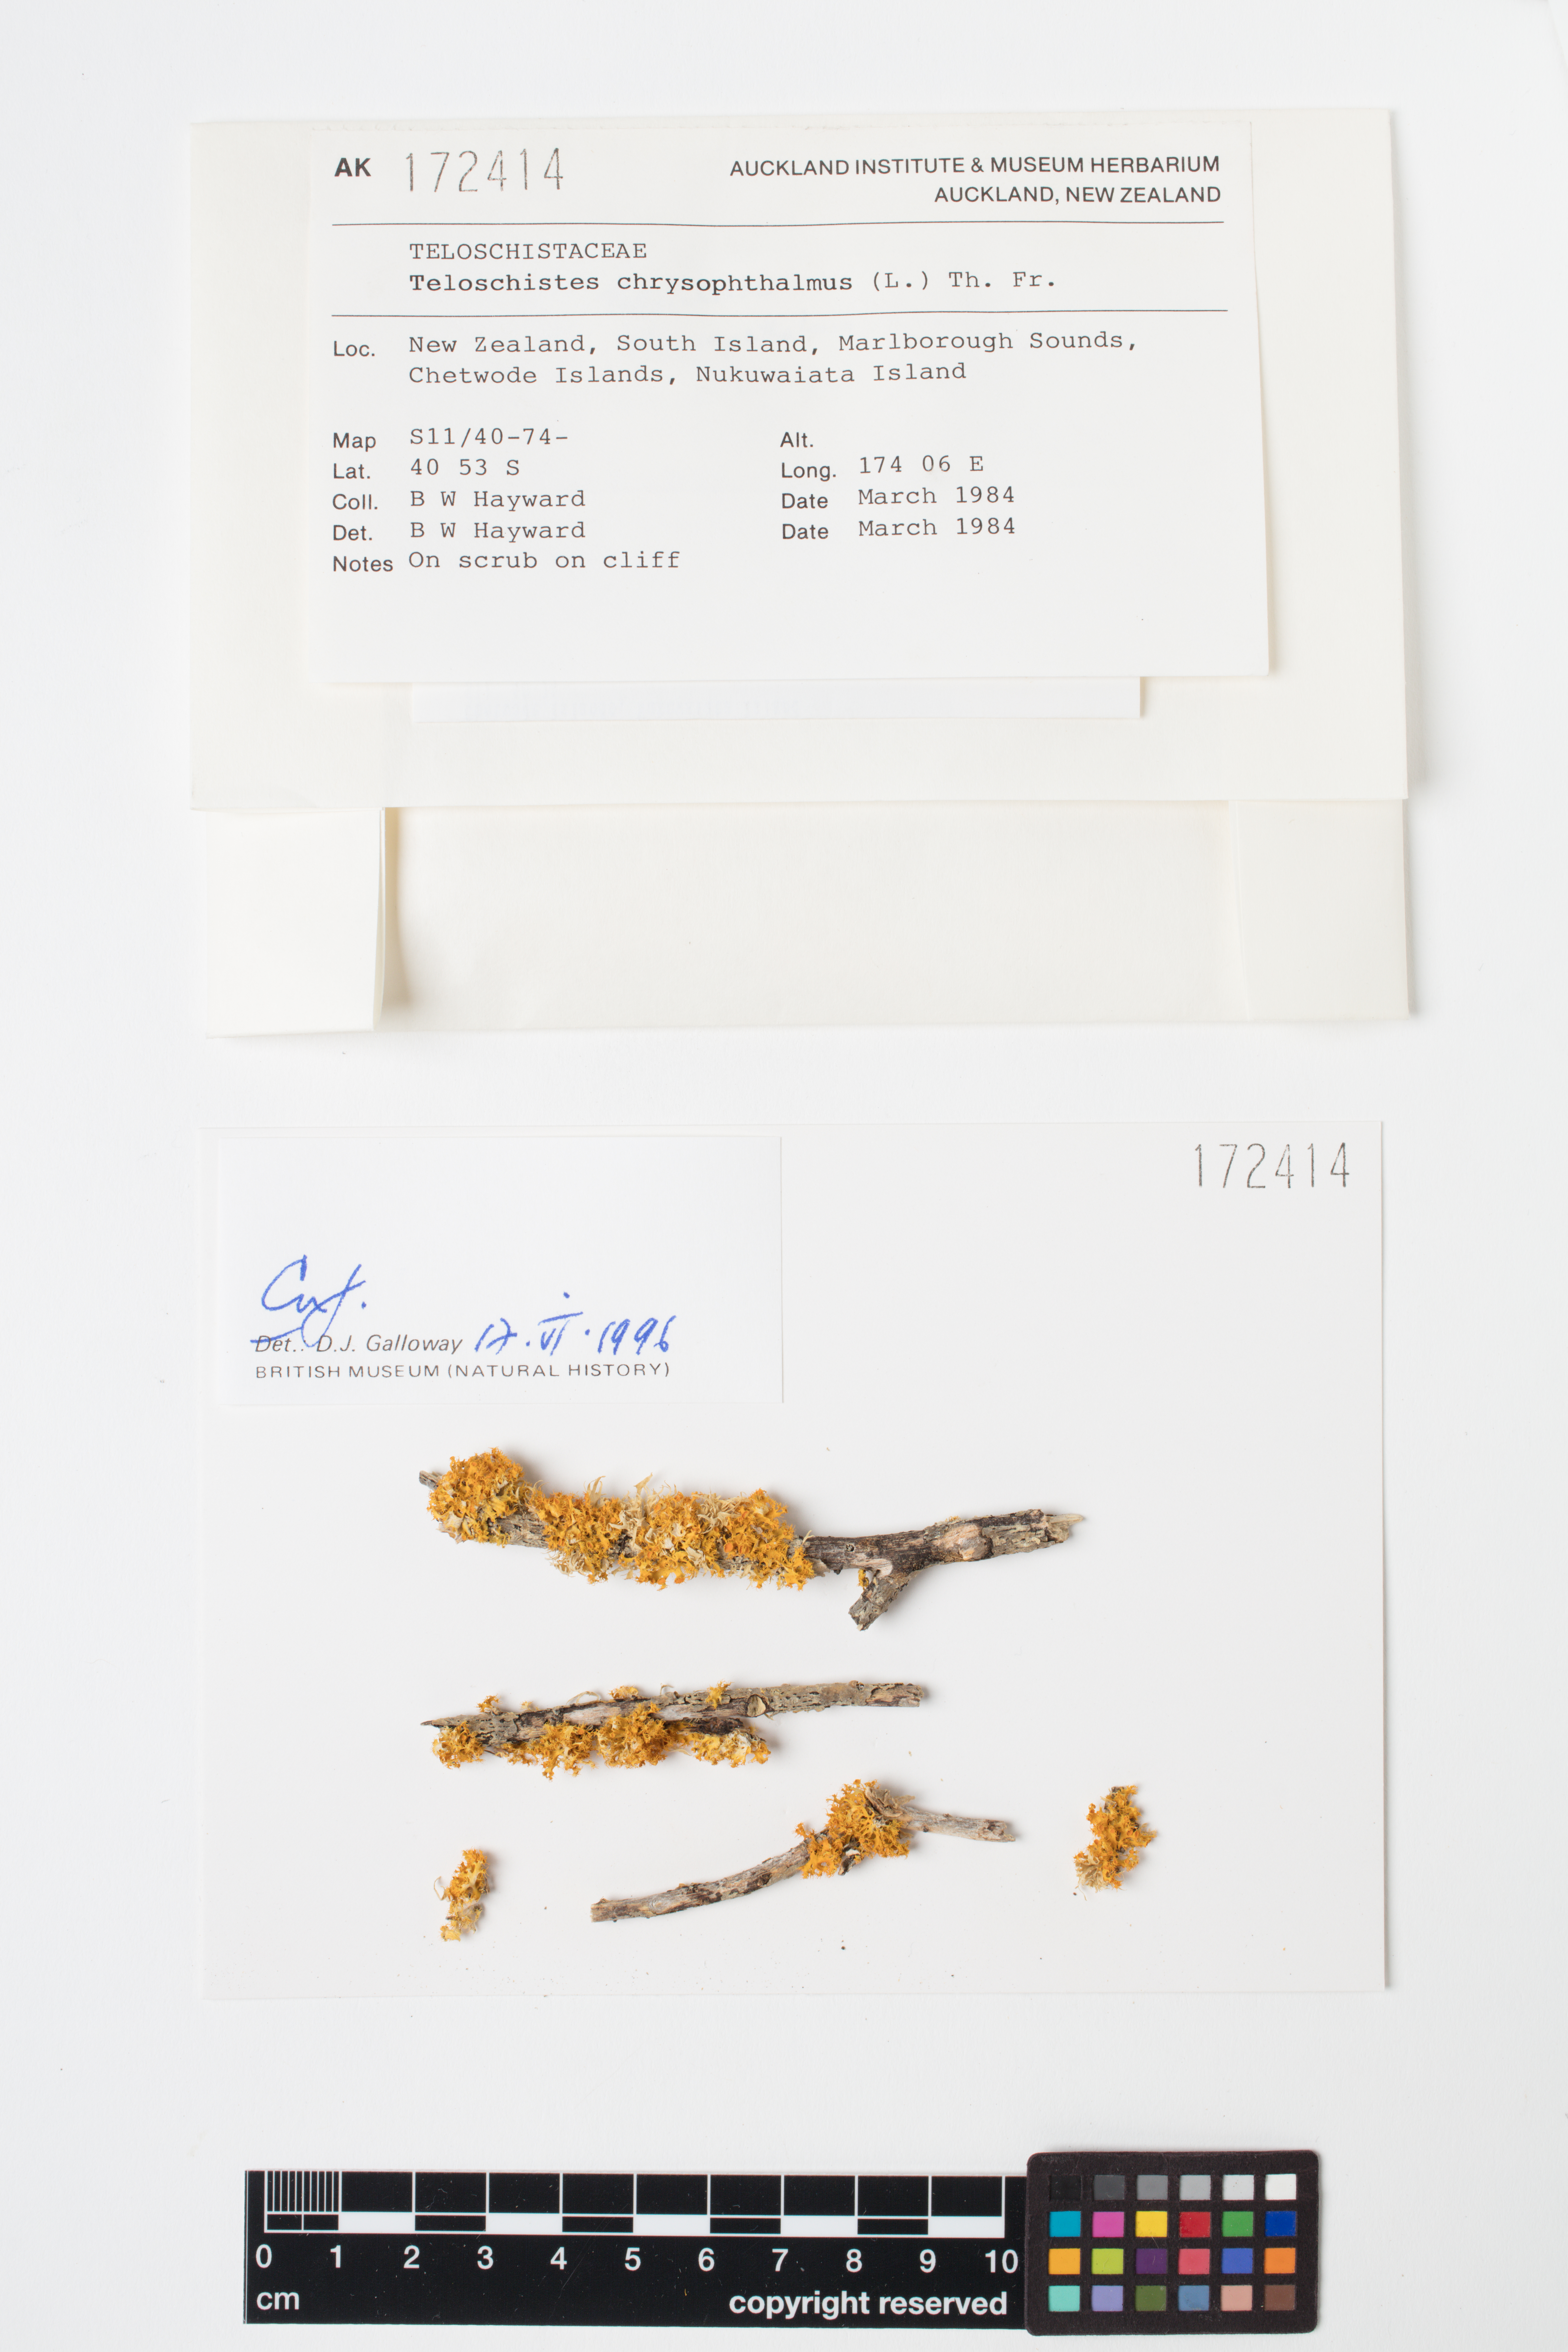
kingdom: Fungi
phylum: Ascomycota
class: Lecanoromycetes
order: Teloschistales
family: Teloschistaceae
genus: Niorma
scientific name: Niorma chrysophthalma
